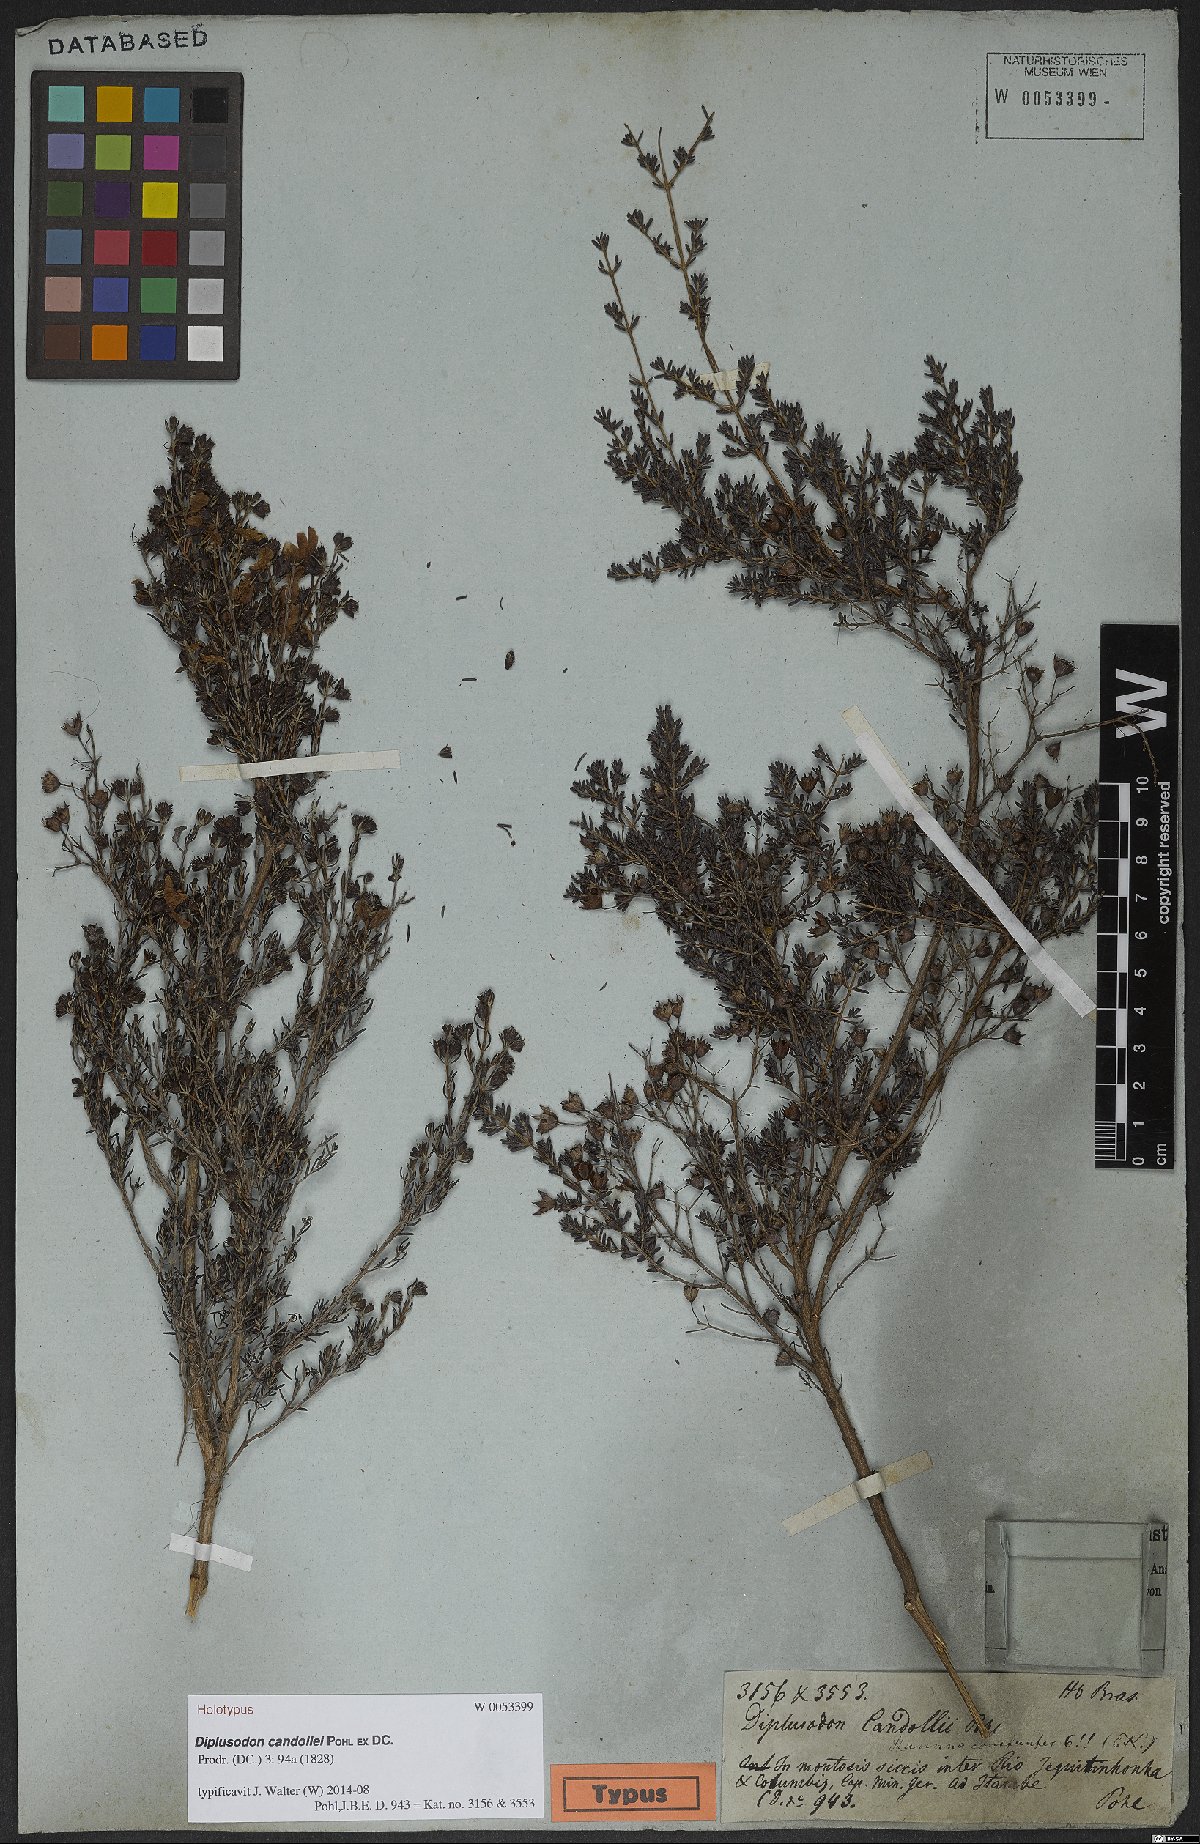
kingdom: Plantae
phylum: Tracheophyta
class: Magnoliopsida
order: Myrtales
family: Lythraceae
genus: Diplusodon
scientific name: Diplusodon candollei
